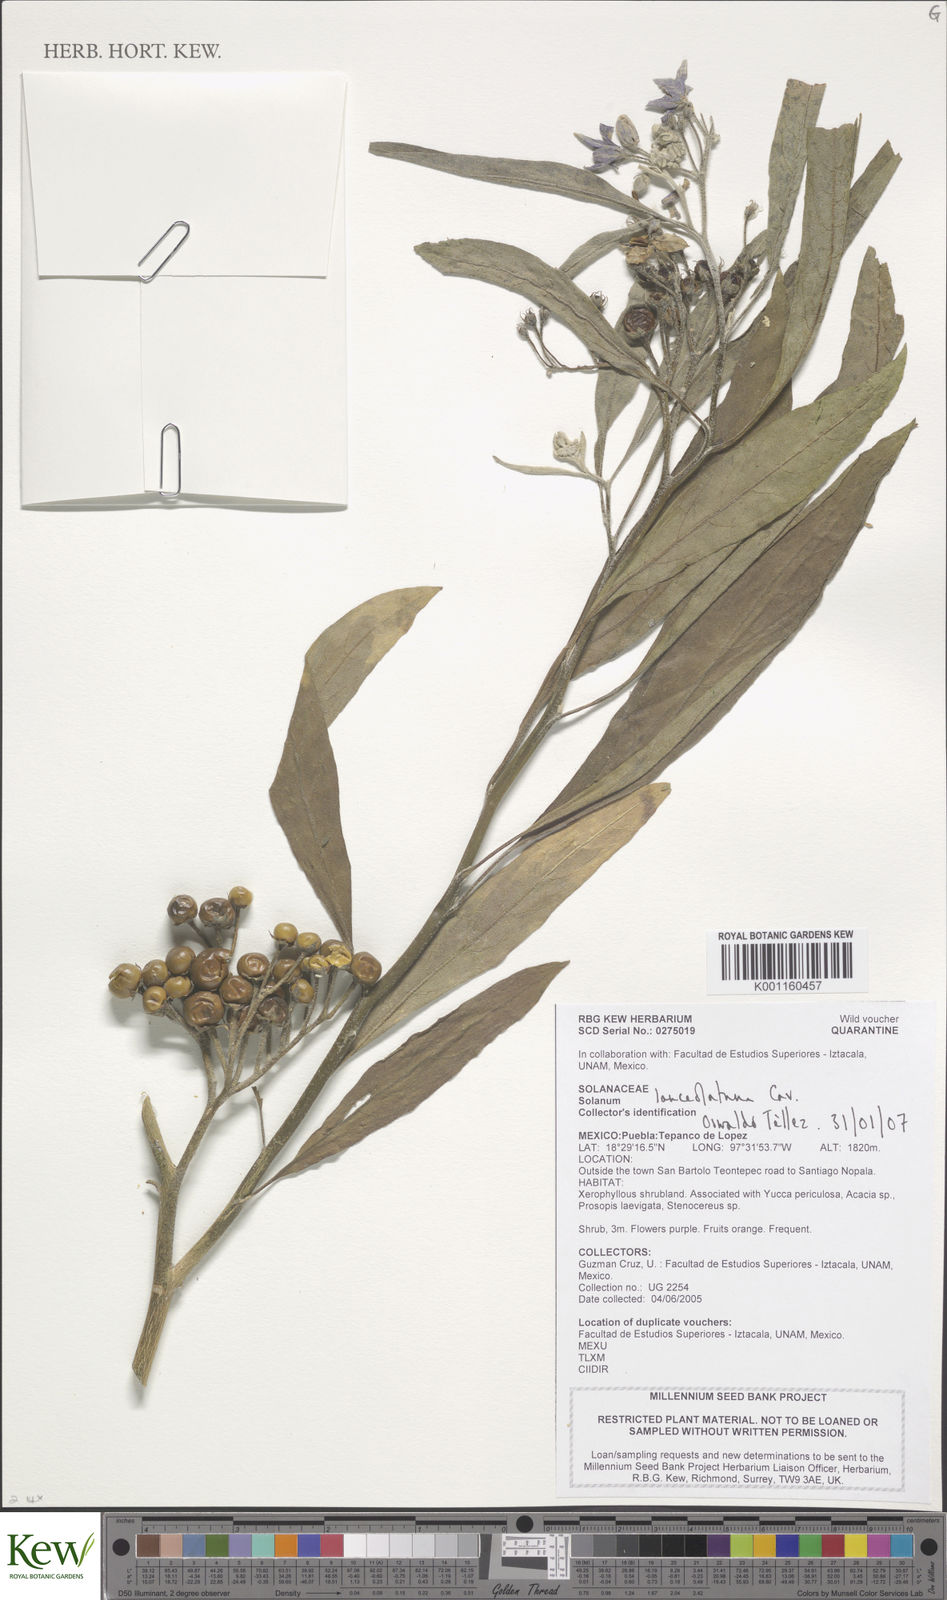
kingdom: Plantae
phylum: Tracheophyta
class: Magnoliopsida
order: Solanales
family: Solanaceae
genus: Solanum
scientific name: Solanum lanceolatum
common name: Orangeberry nightshade
